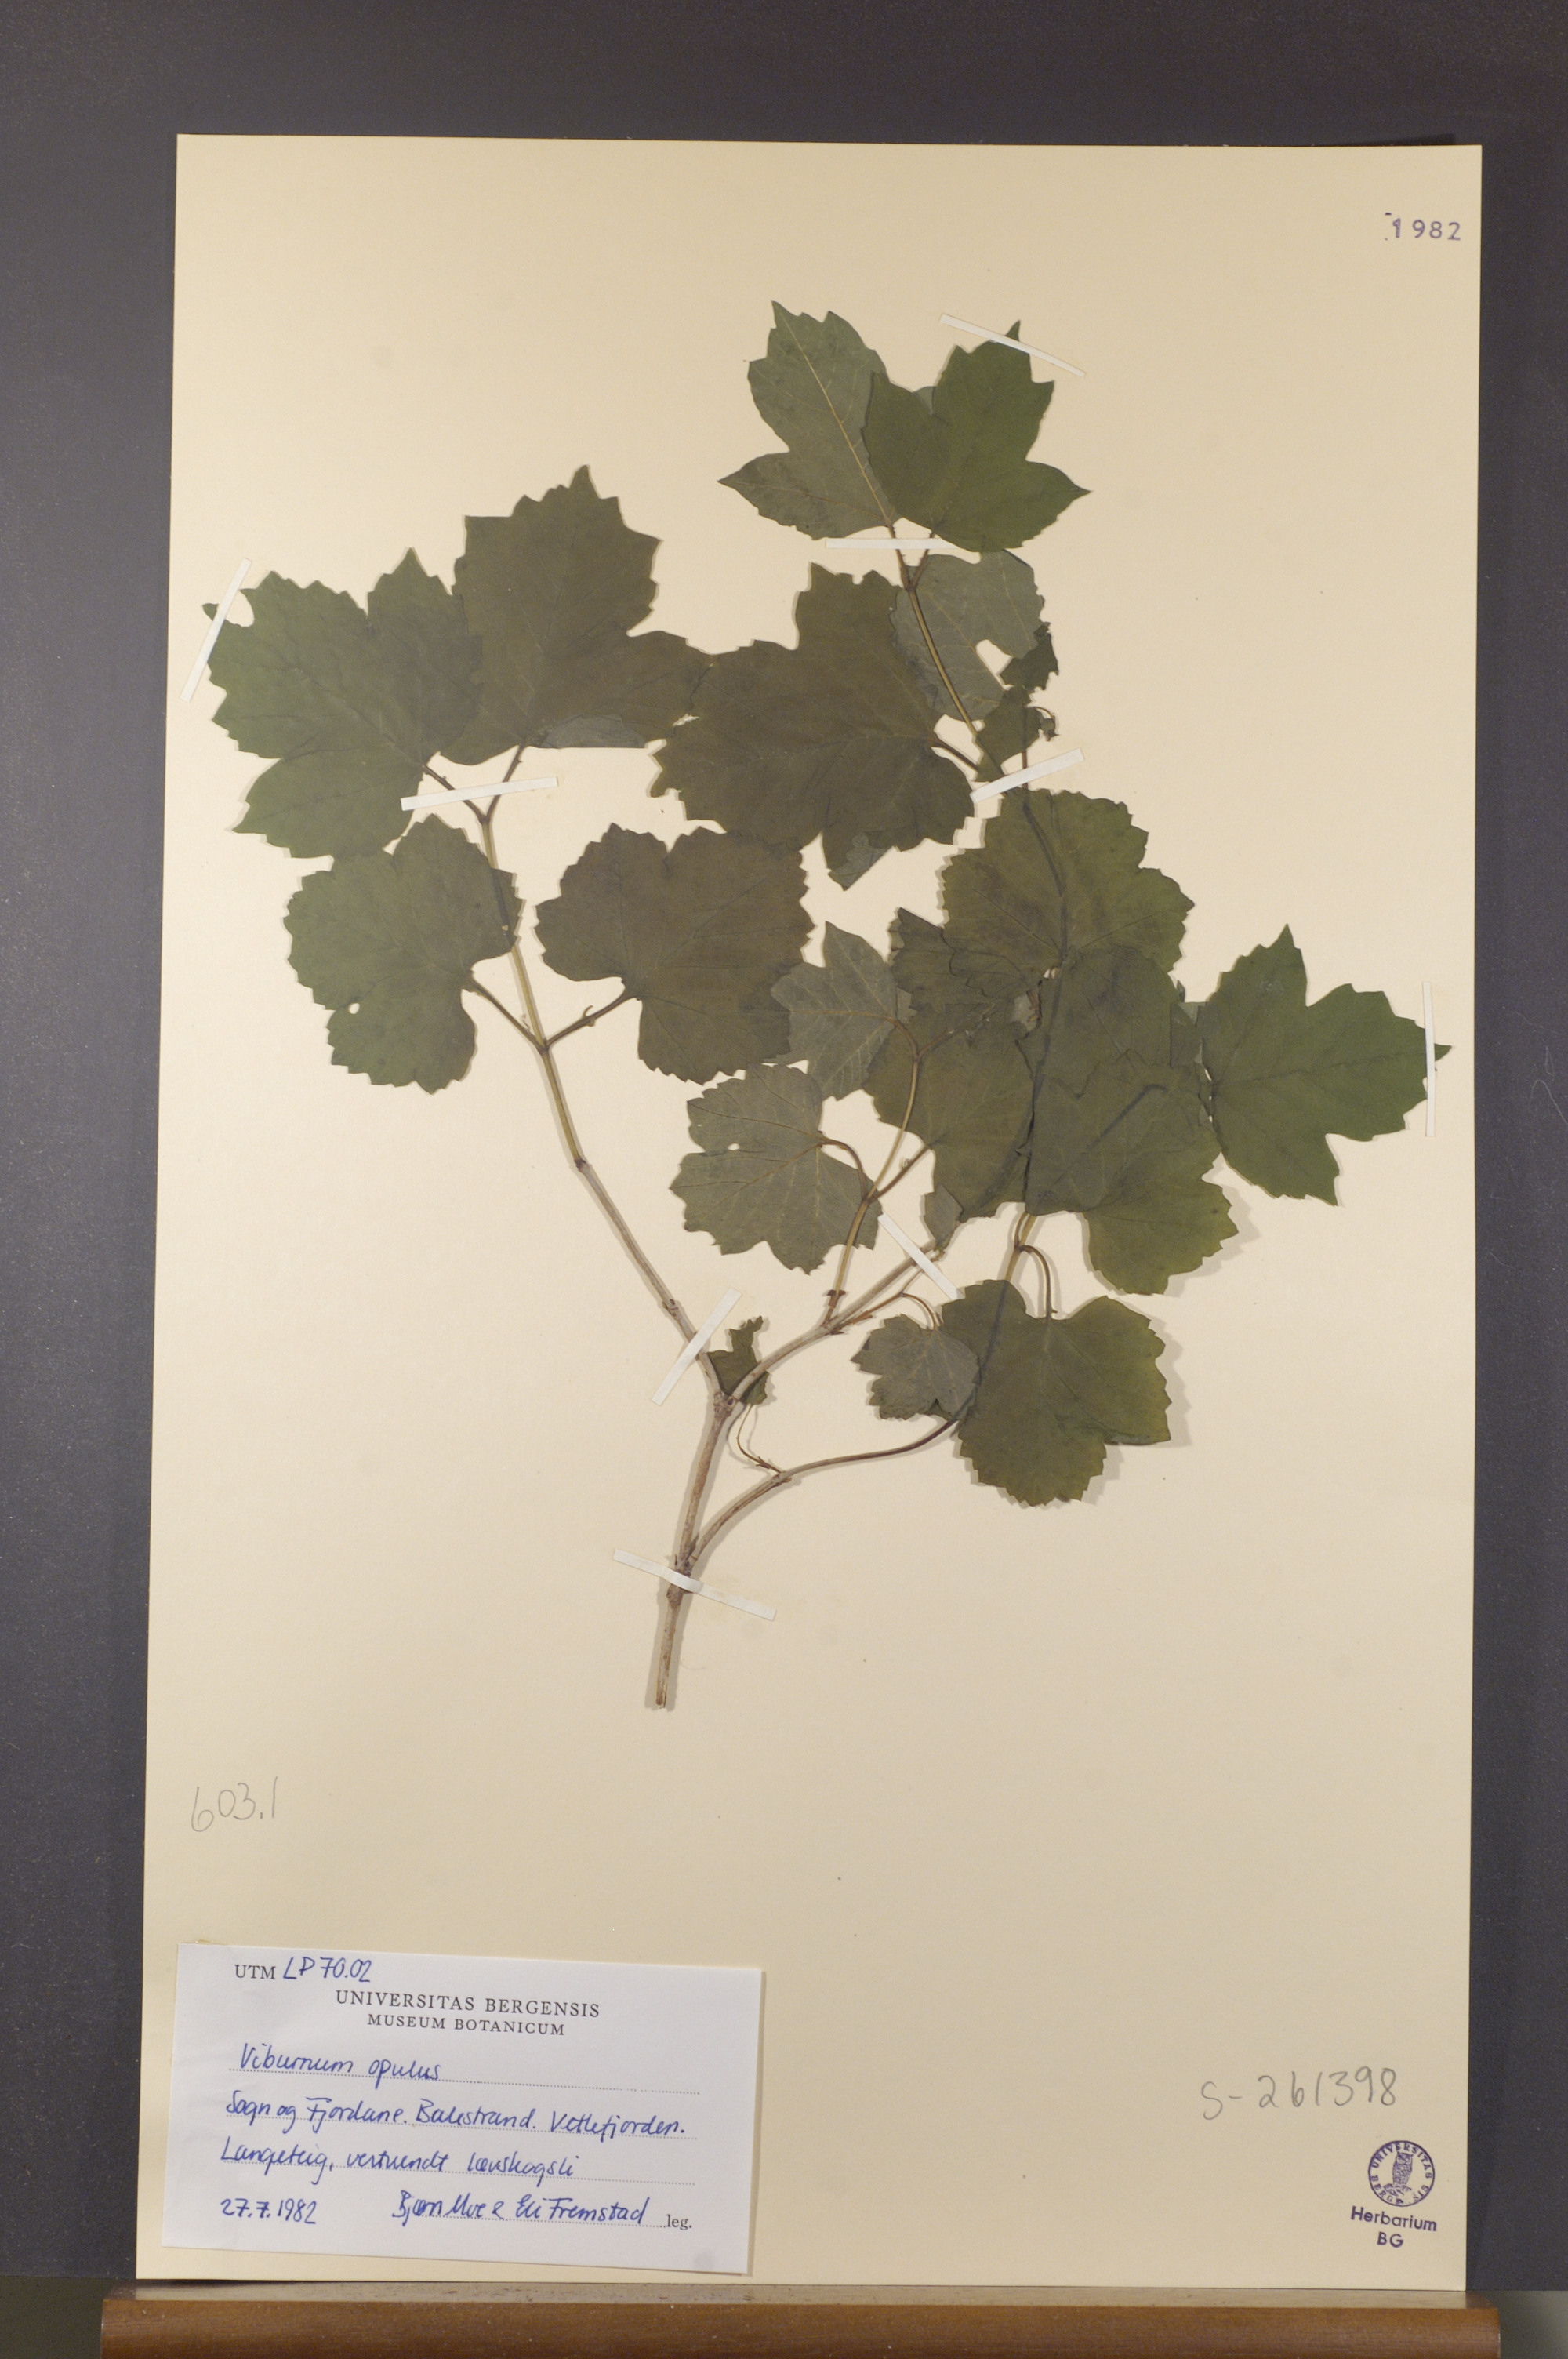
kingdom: Plantae
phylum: Tracheophyta
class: Magnoliopsida
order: Dipsacales
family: Viburnaceae
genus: Viburnum
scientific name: Viburnum opulus
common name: Guelder-rose
